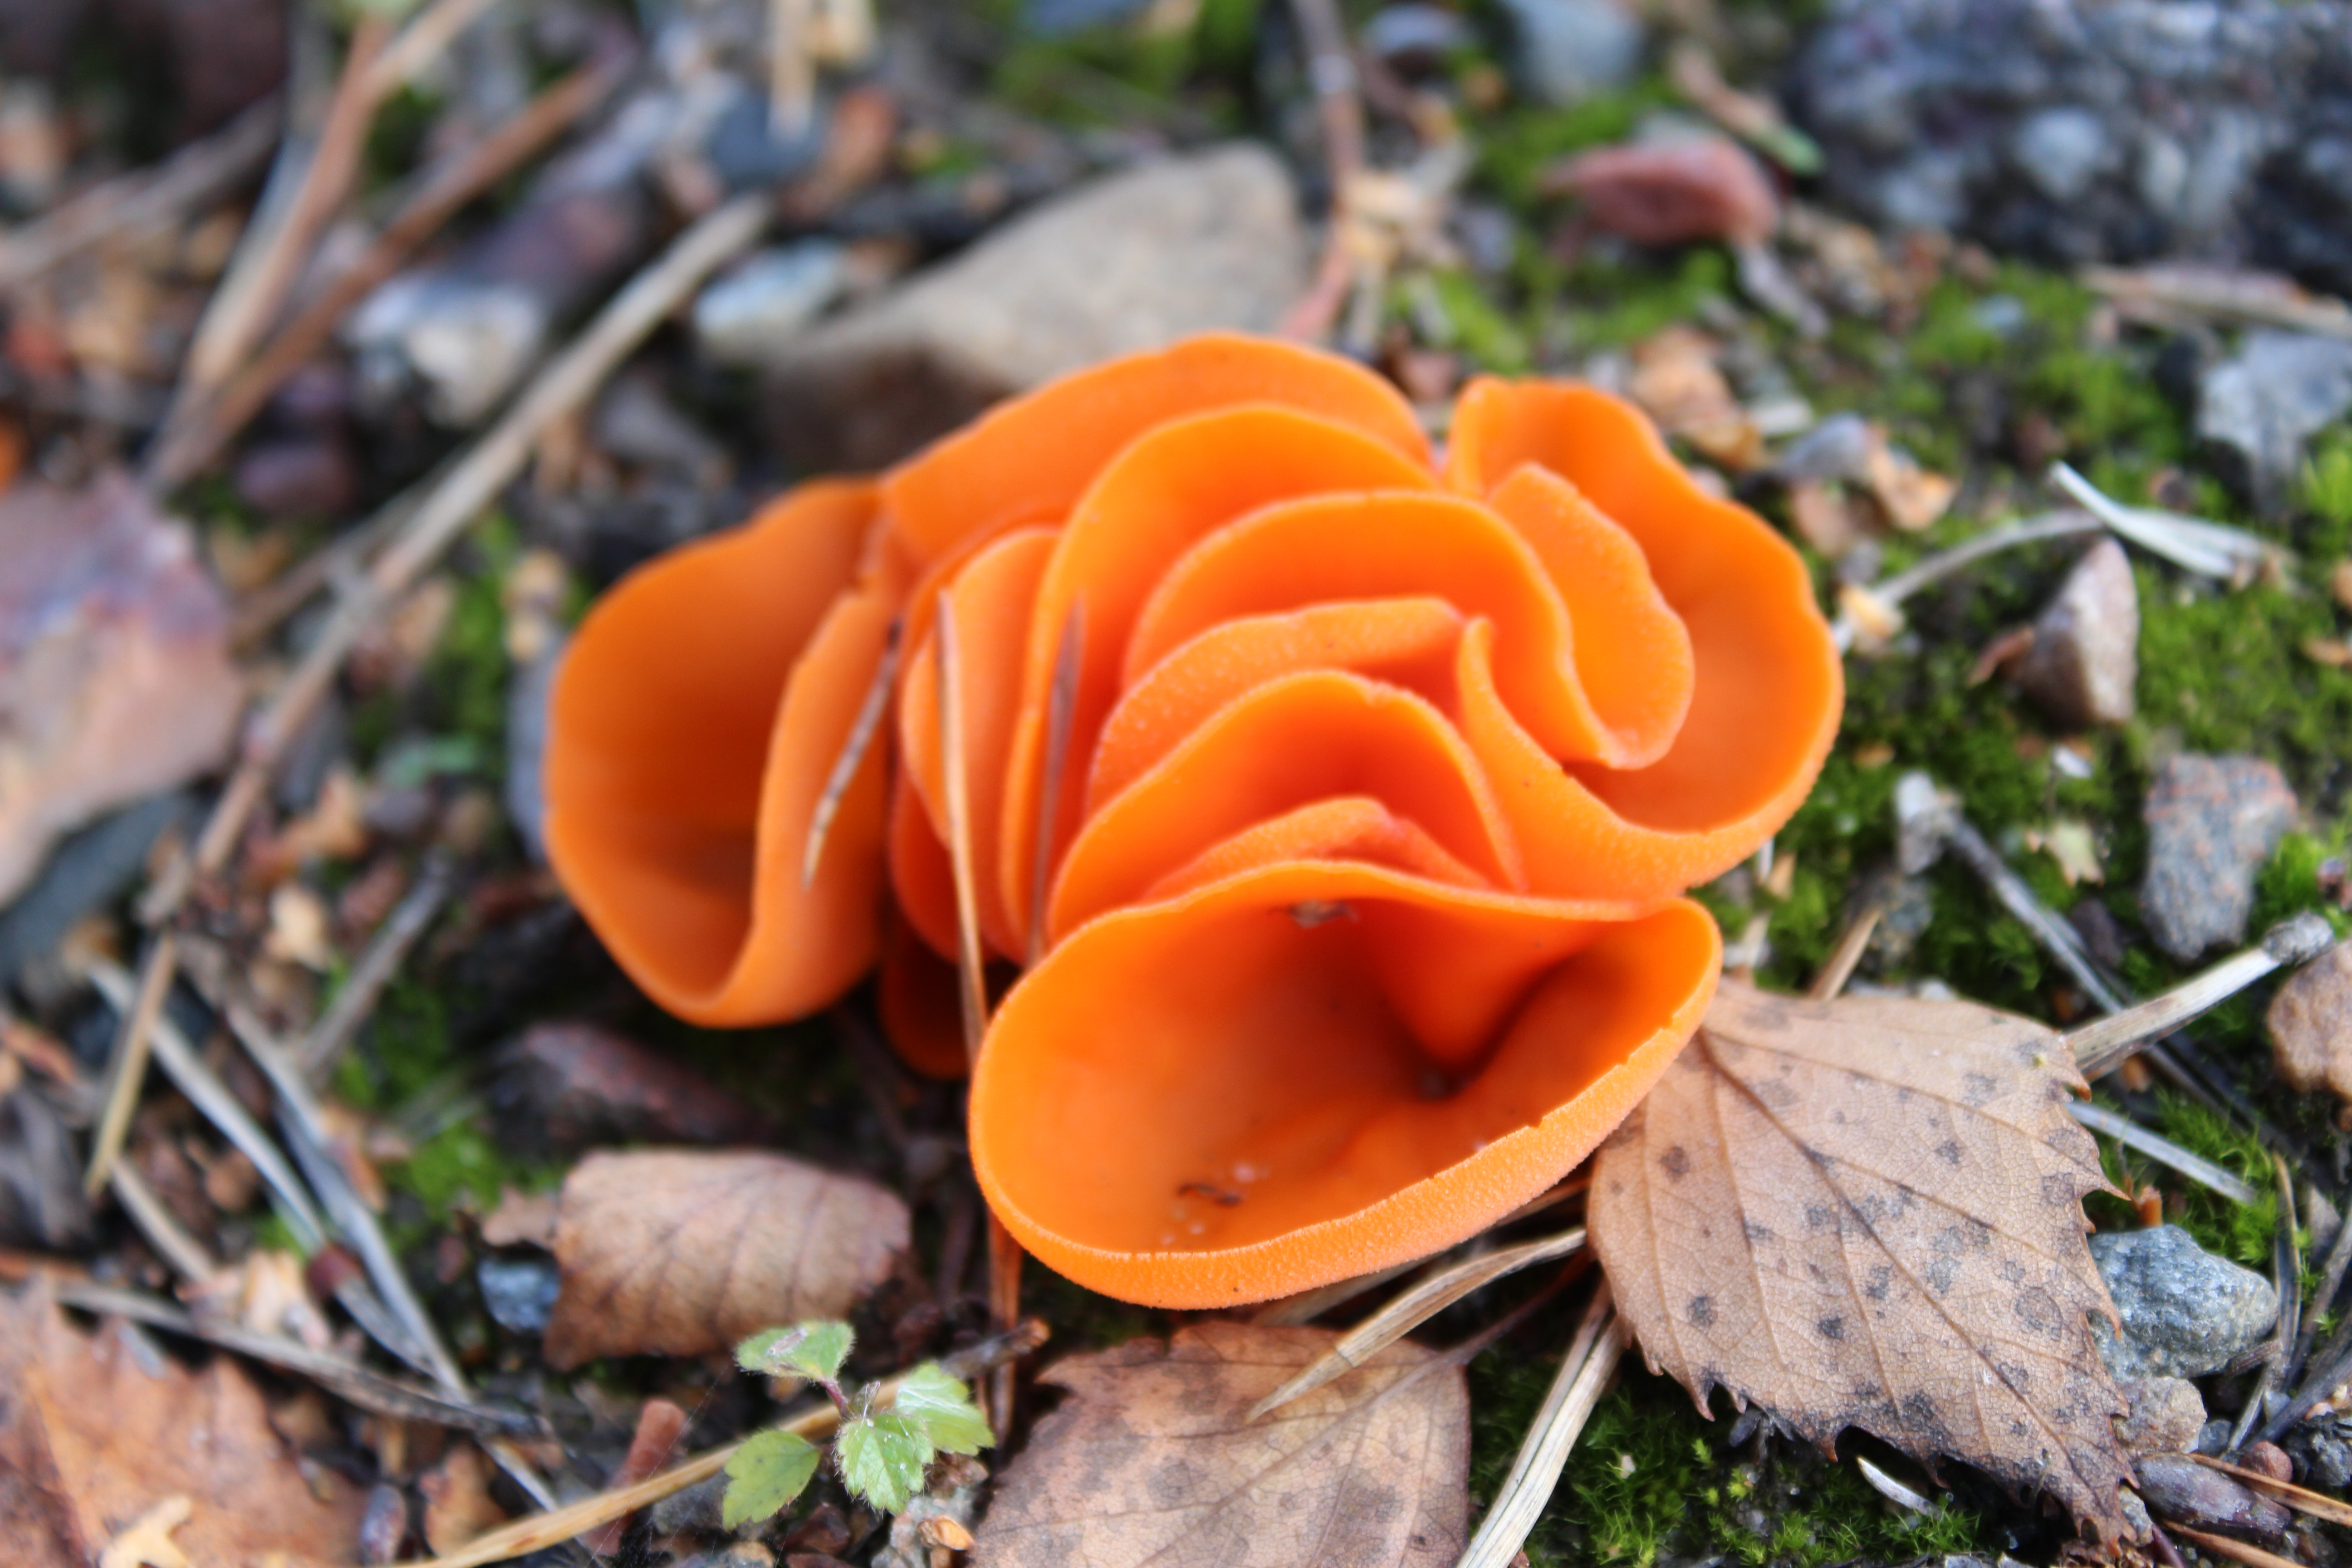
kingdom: Fungi
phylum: Ascomycota
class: Pezizomycetes
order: Pezizales
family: Pyronemataceae
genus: Aleuria
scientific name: Aleuria aurantia
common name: Orange peel fungus
